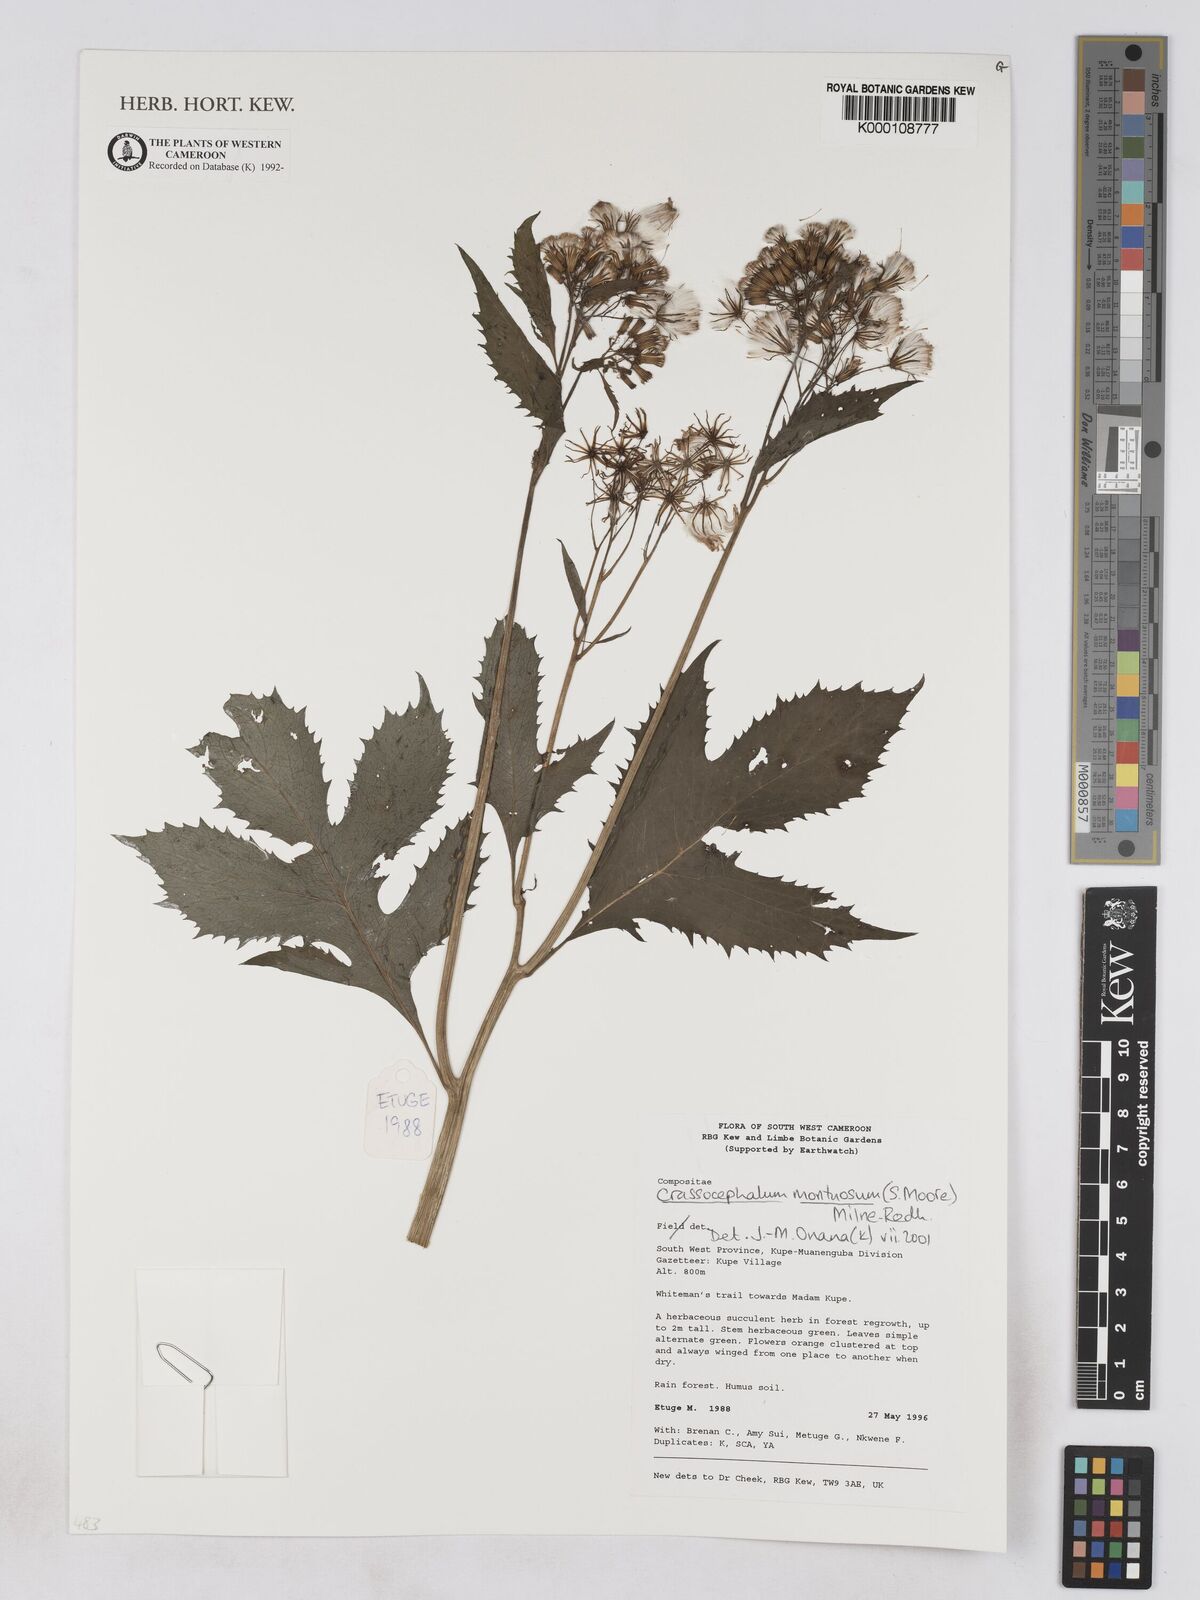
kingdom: Plantae
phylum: Tracheophyta
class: Magnoliopsida
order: Asterales
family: Asteraceae
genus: Crassocephalum
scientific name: Crassocephalum montuosum
